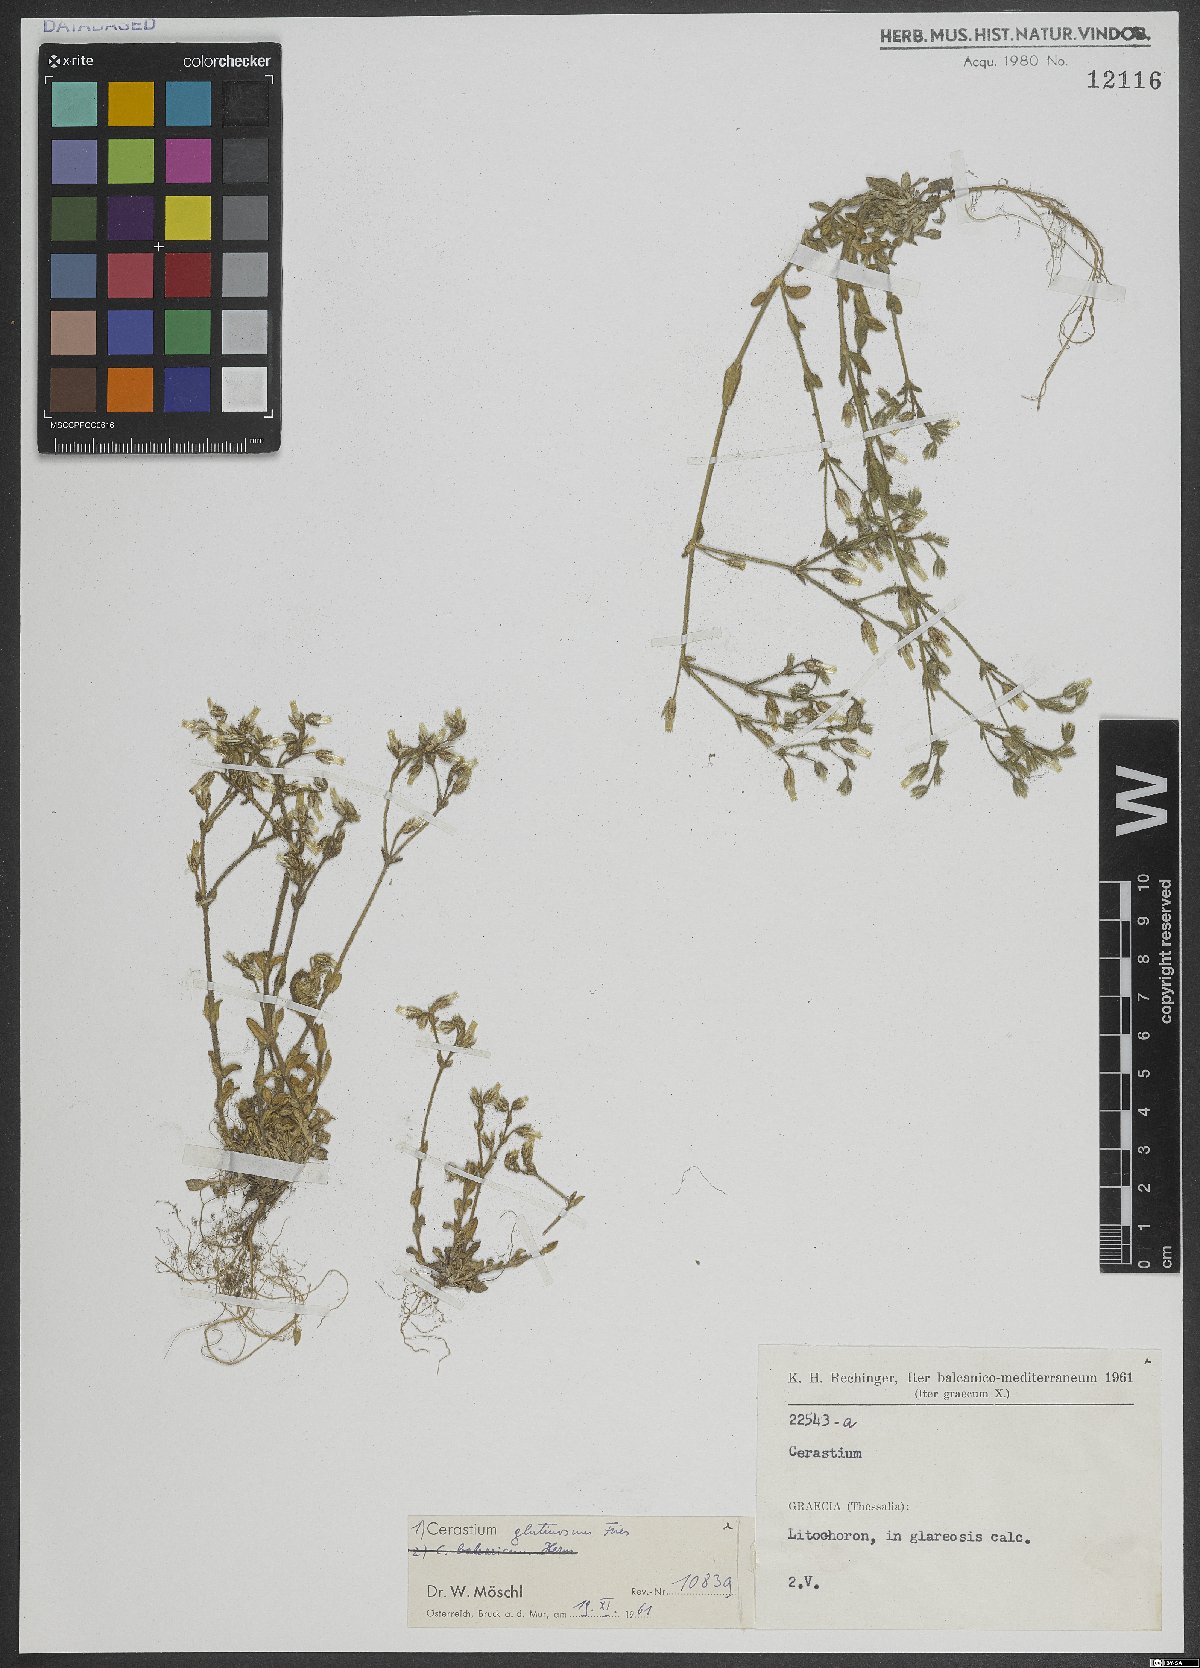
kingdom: Plantae
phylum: Tracheophyta
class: Magnoliopsida
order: Caryophyllales
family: Caryophyllaceae
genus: Cerastium
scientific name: Cerastium glutinosum
